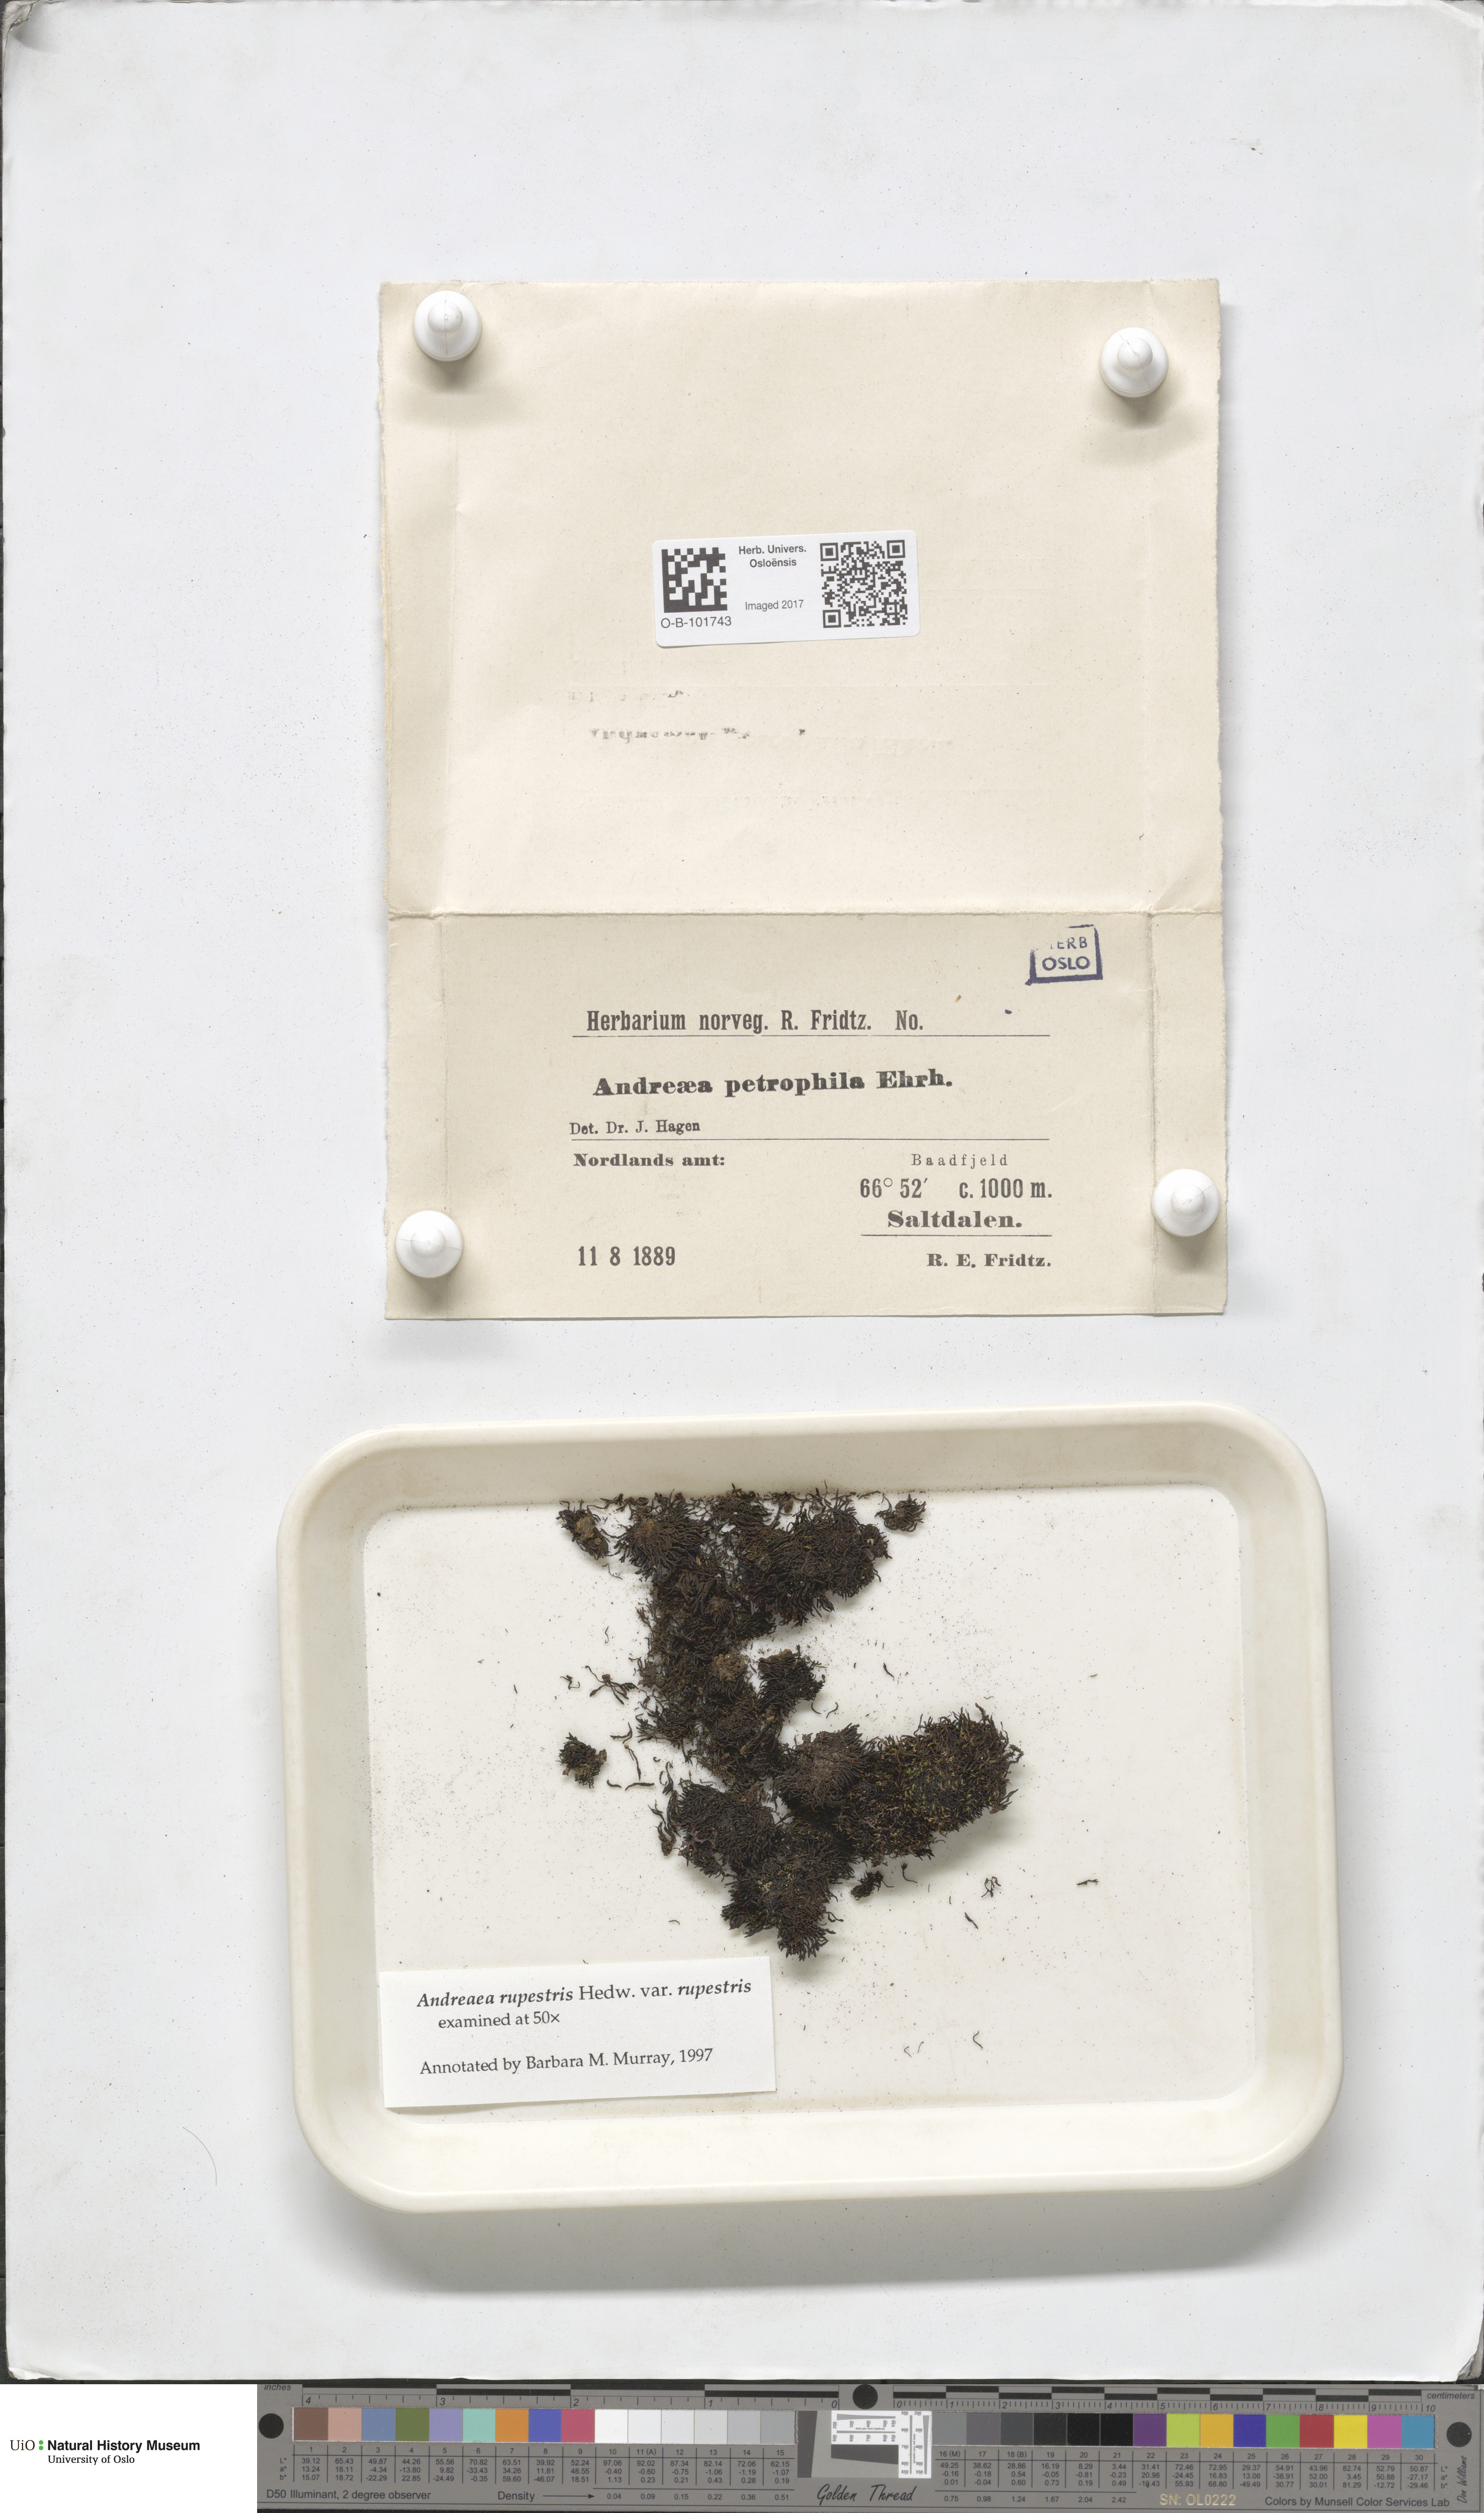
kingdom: Plantae
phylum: Bryophyta
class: Andreaeopsida
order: Andreaeales
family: Andreaeaceae
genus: Andreaea
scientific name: Andreaea rupestris
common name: Black rock moss
